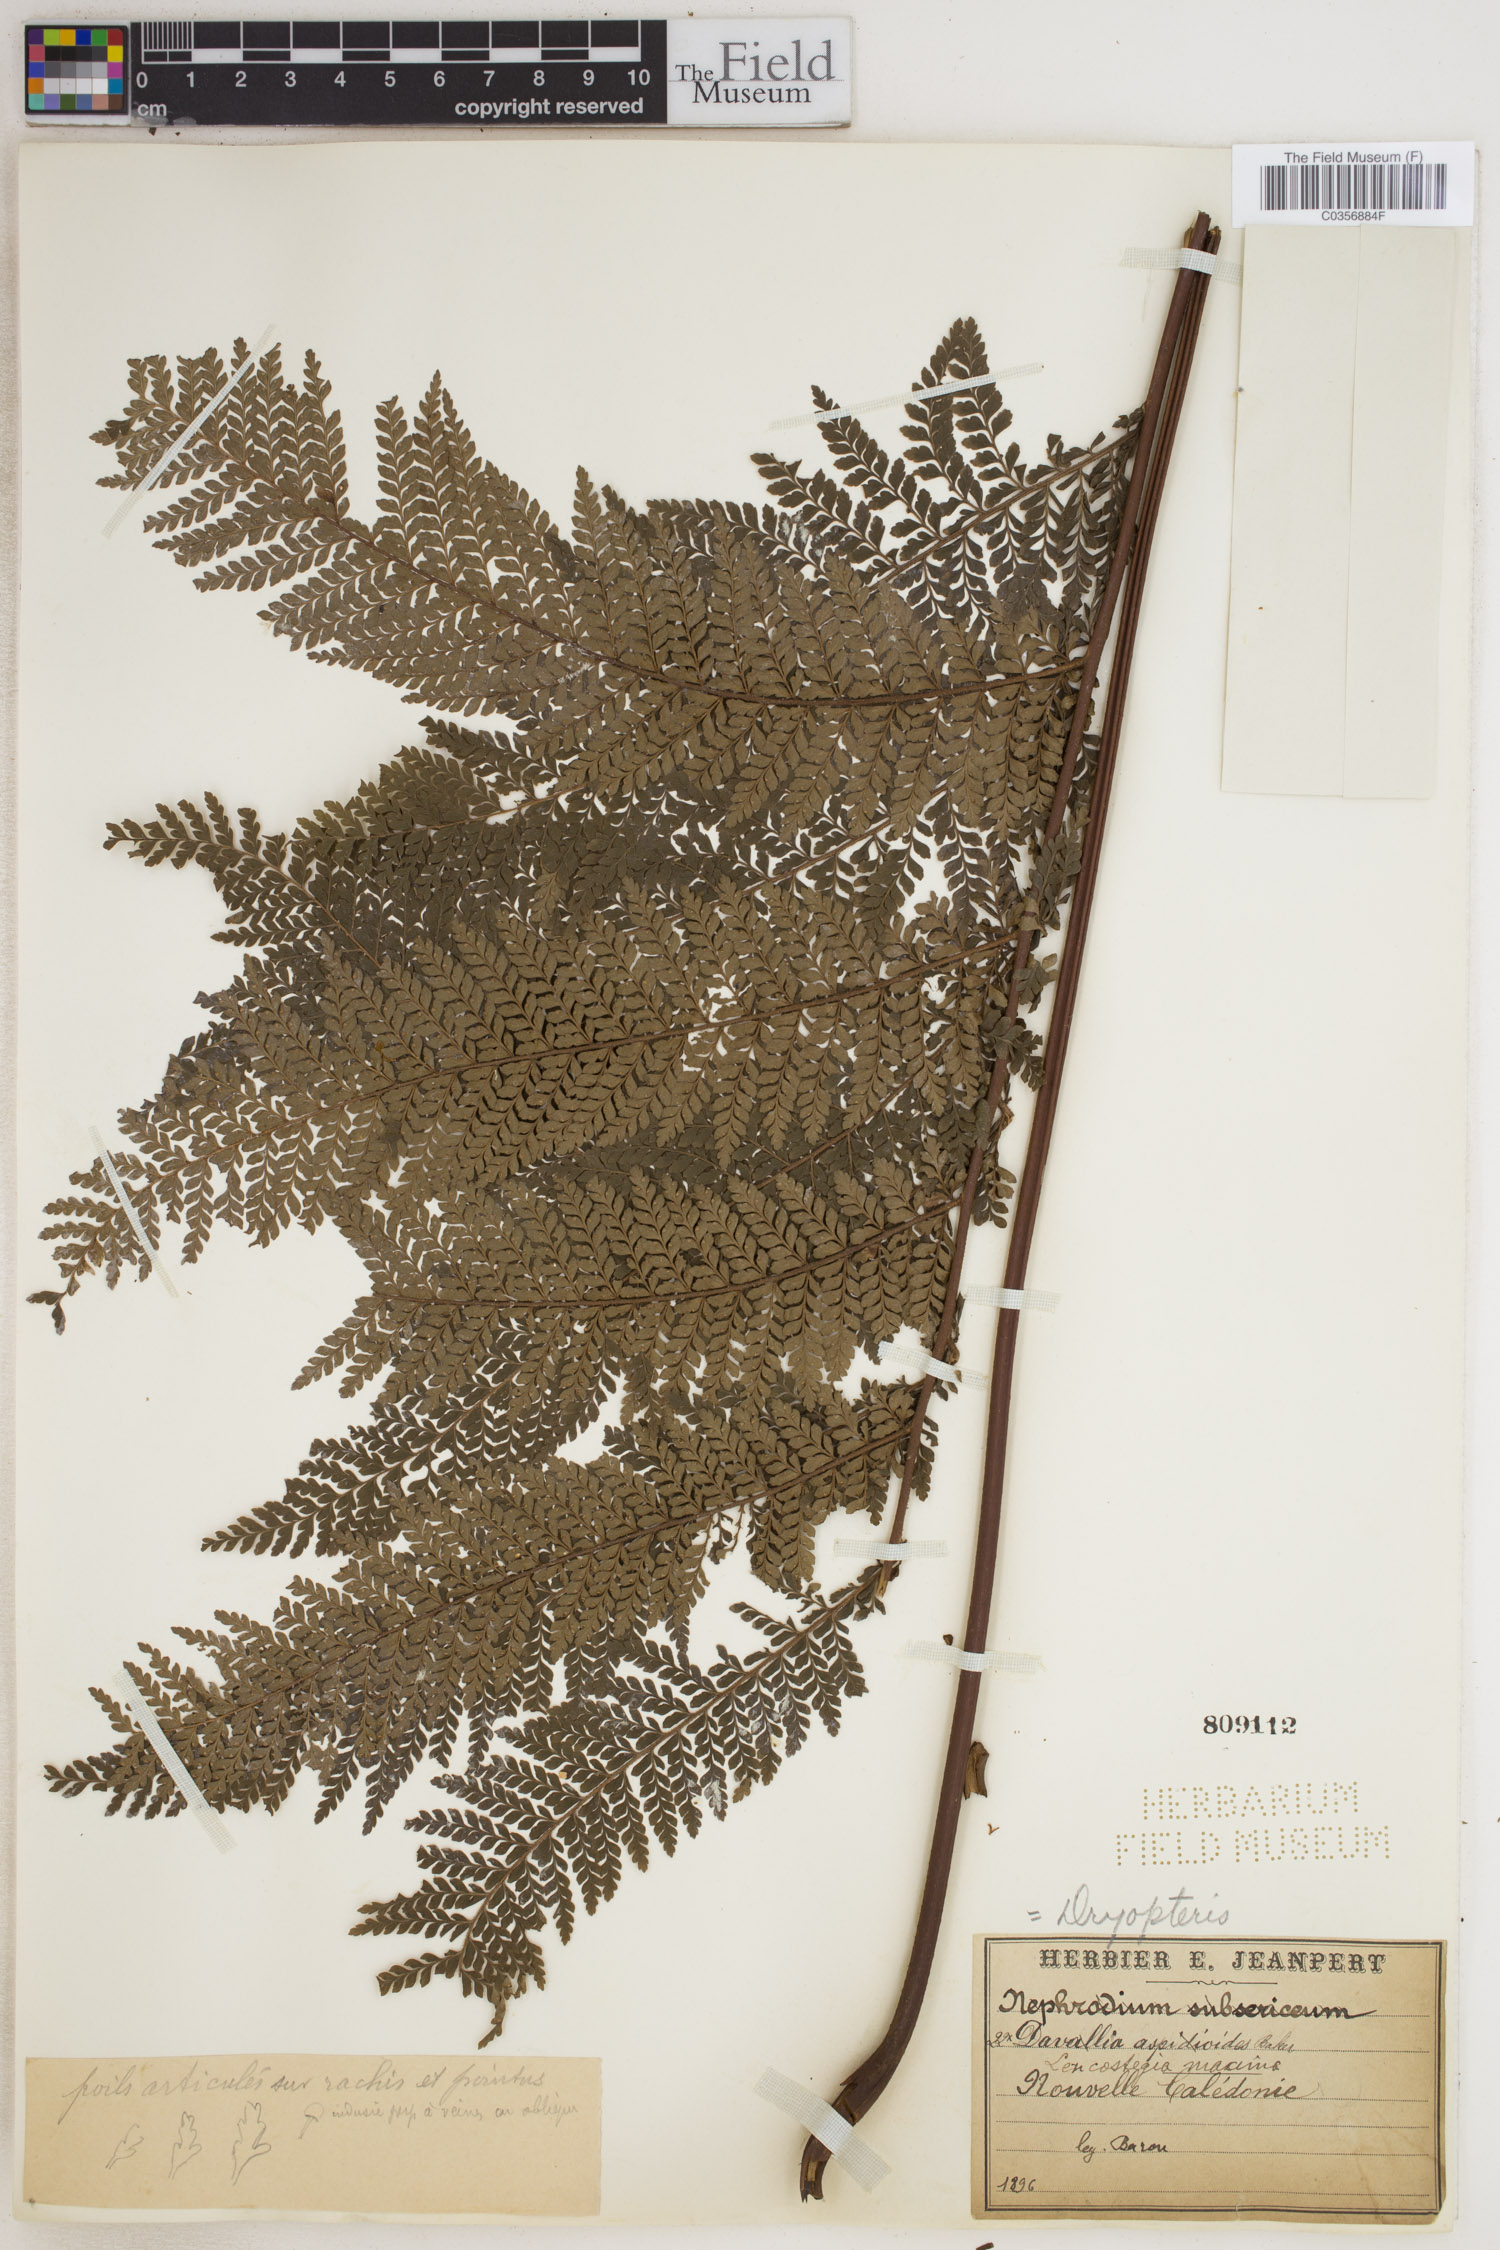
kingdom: Plantae
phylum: Tracheophyta
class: Polypodiopsida
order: Polypodiales
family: Dryopteridaceae
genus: Lastreopsis
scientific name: Lastreopsis subsericea
